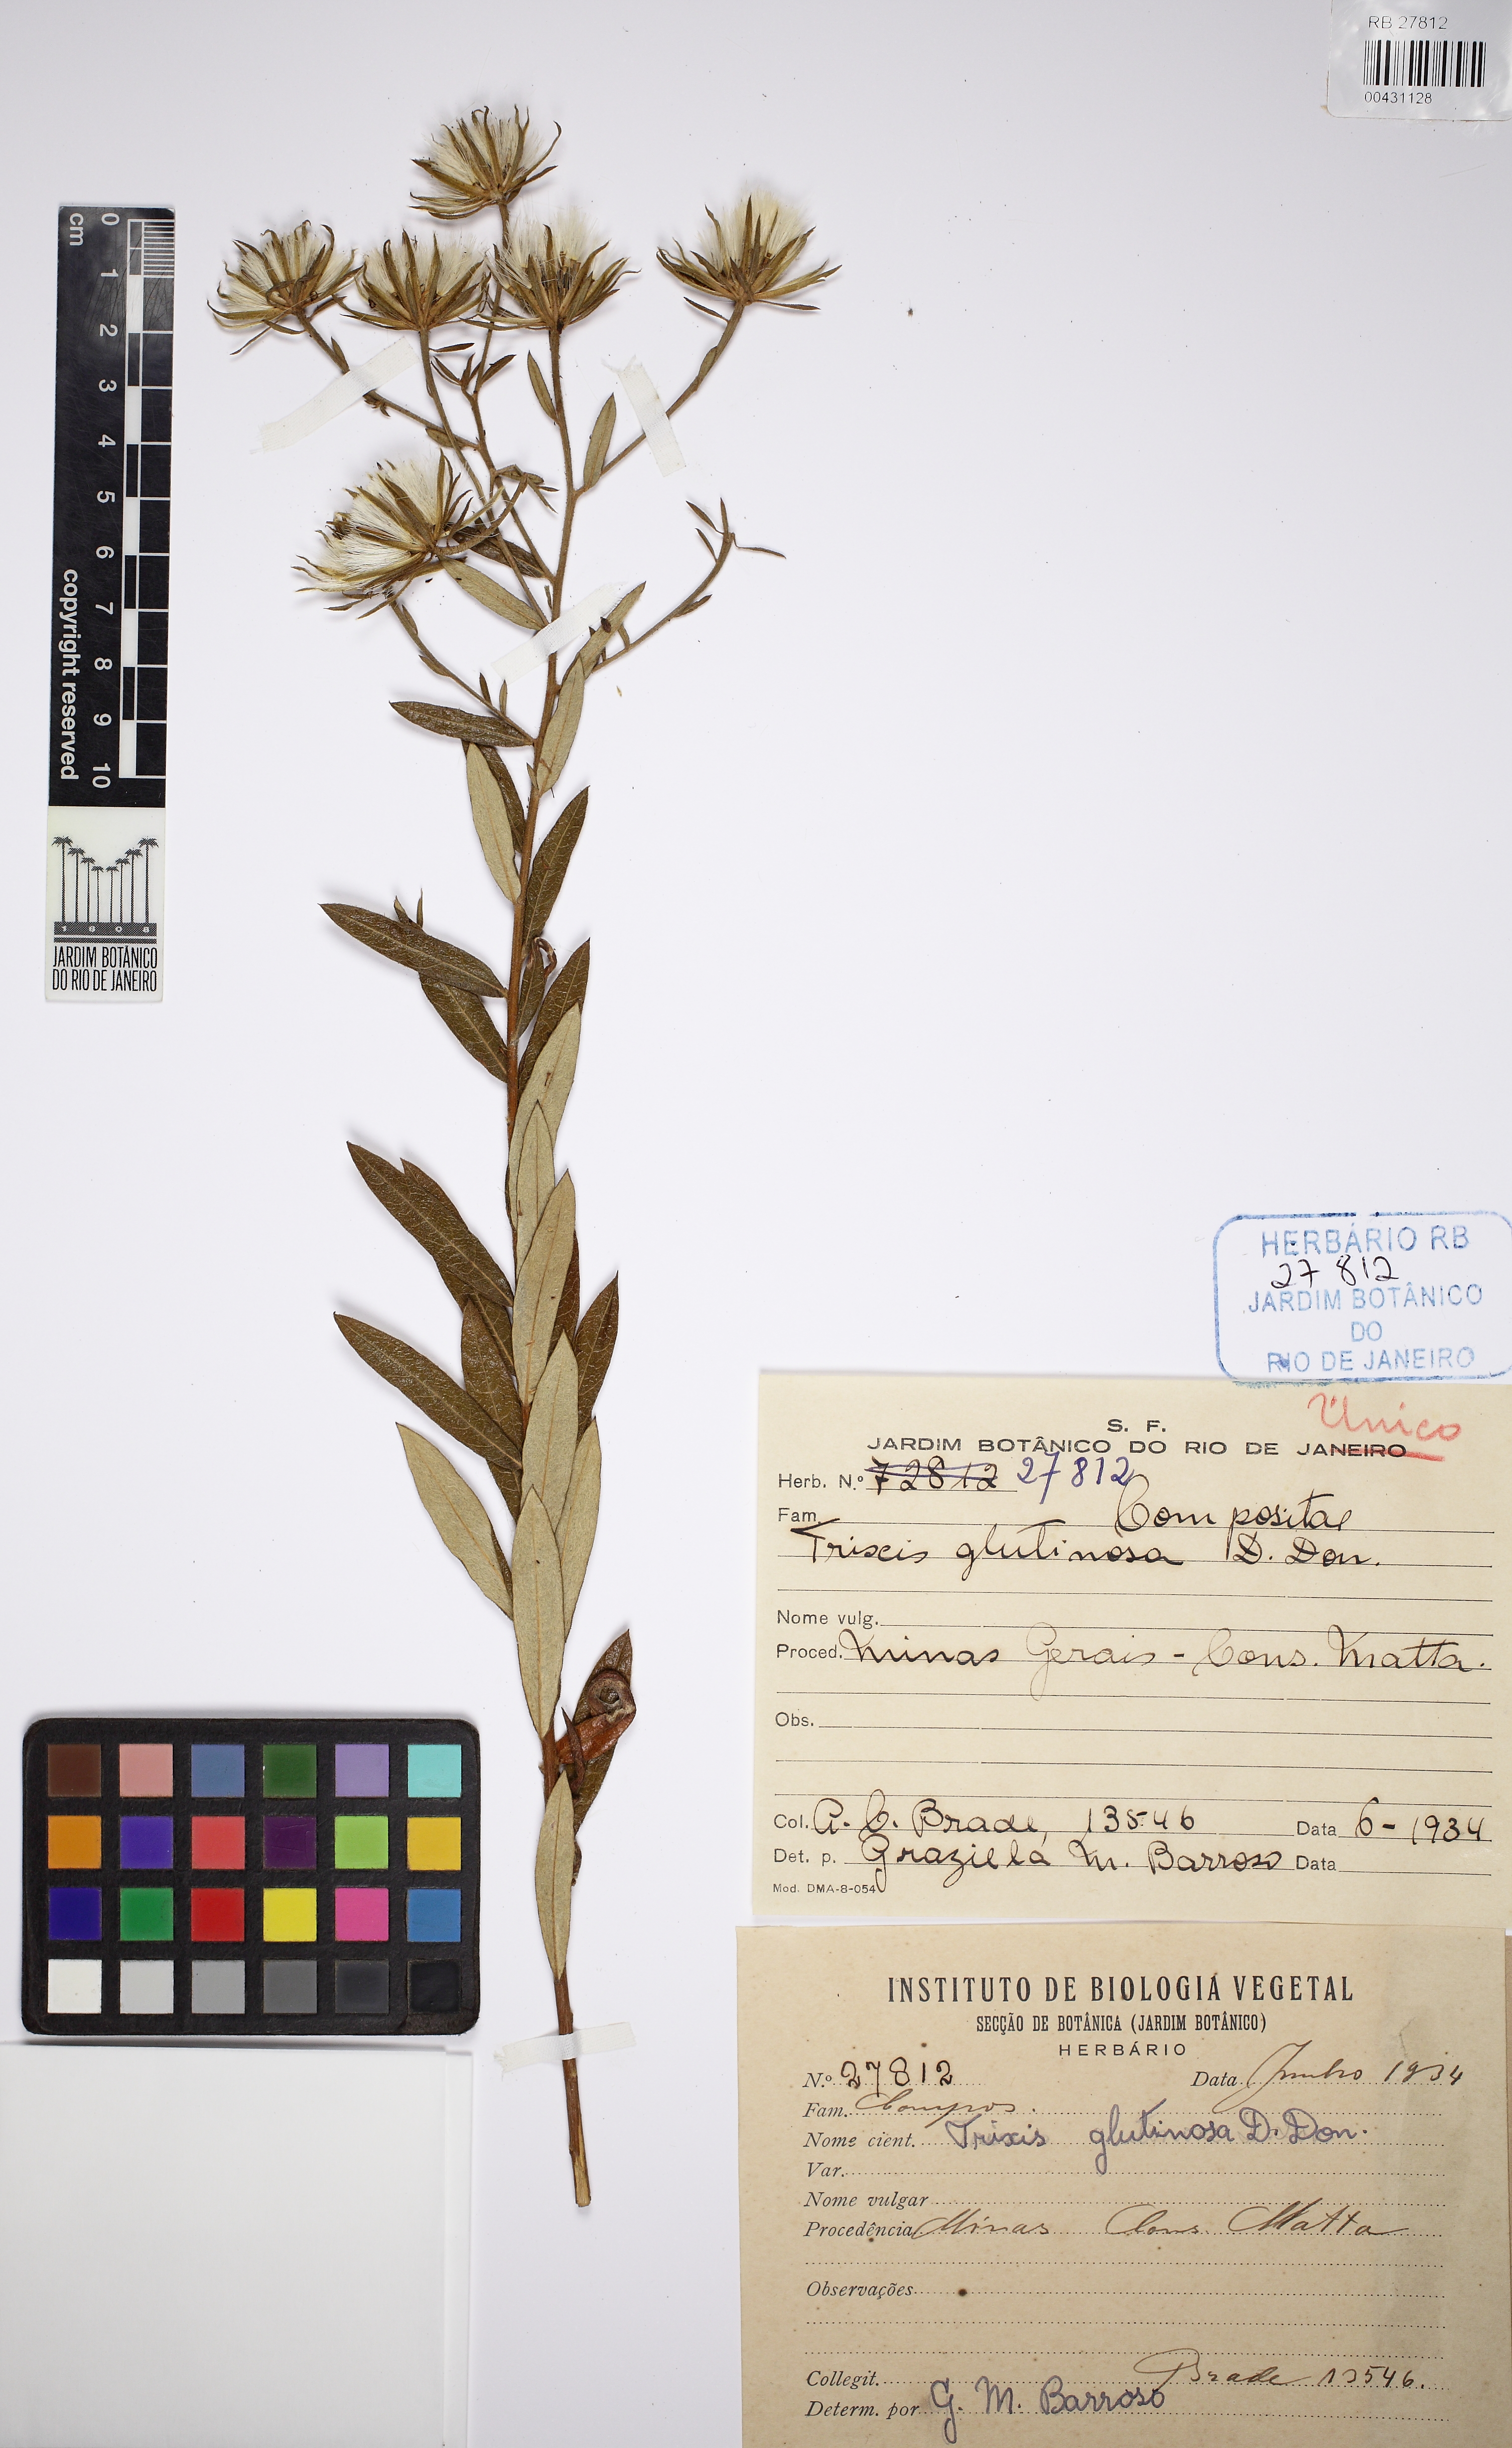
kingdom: Plantae
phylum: Tracheophyta
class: Magnoliopsida
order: Asterales
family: Asteraceae
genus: Trixis
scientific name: Trixis glutinosa
